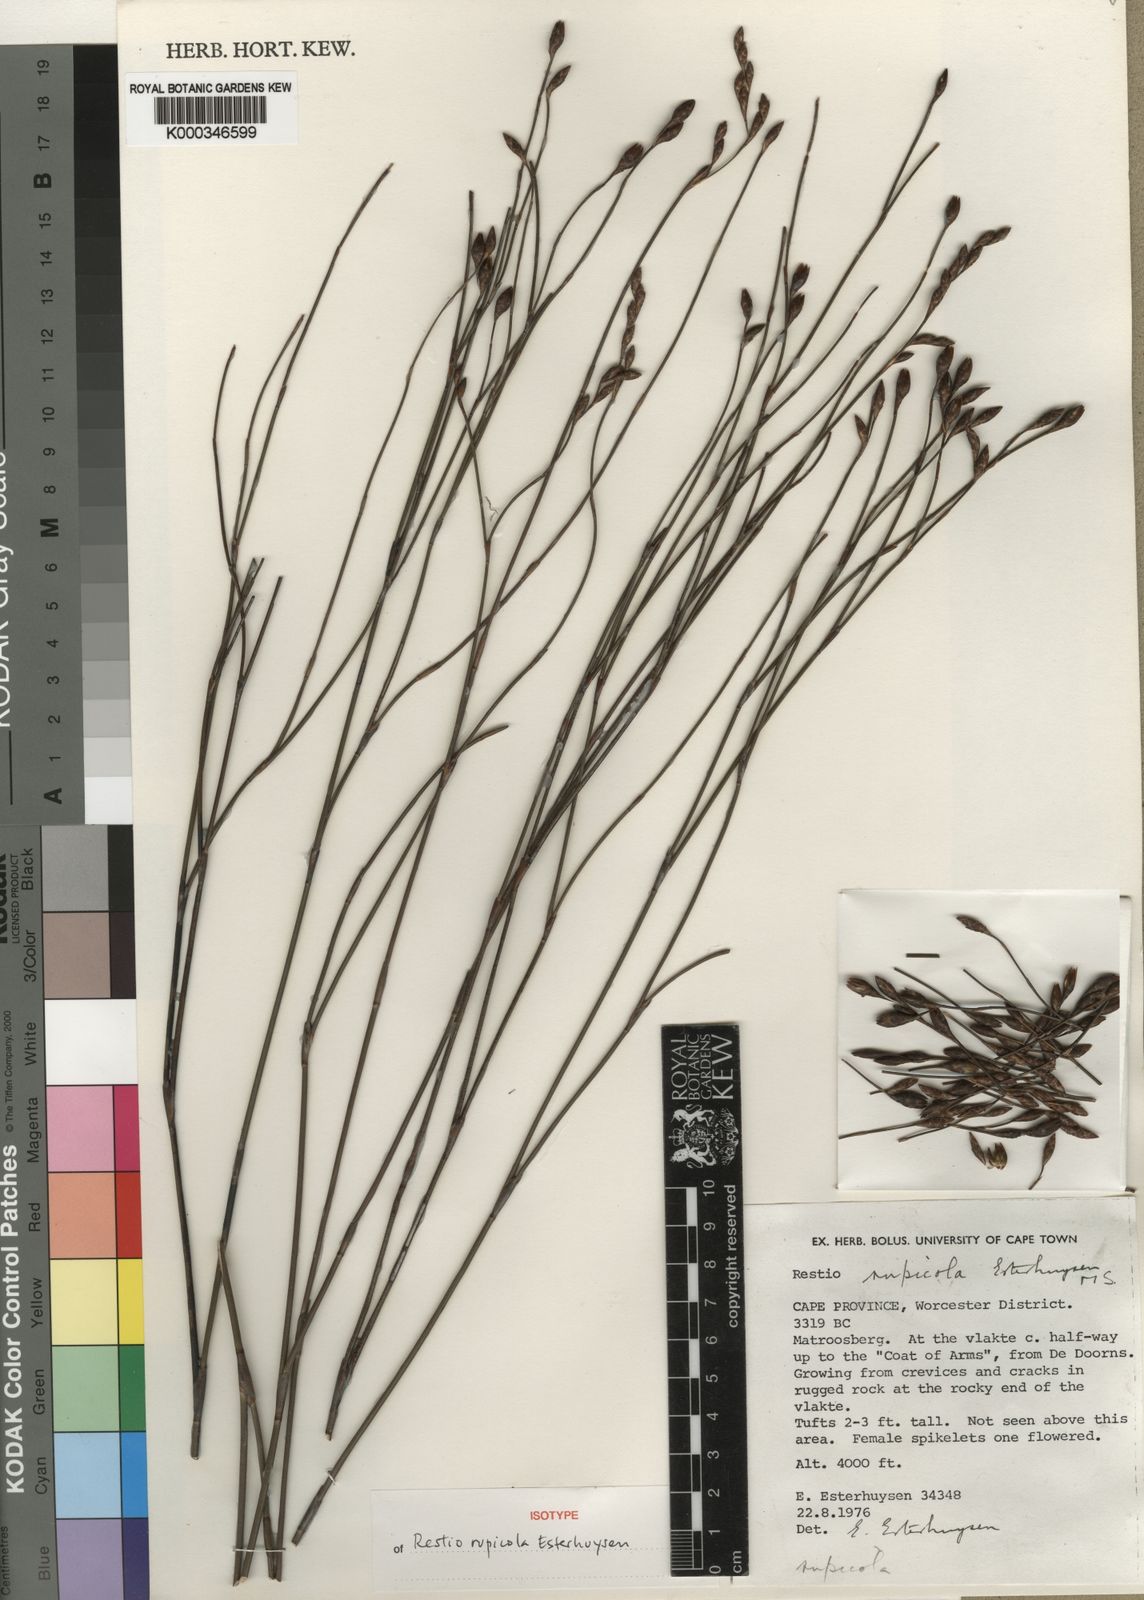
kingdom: Plantae
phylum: Tracheophyta
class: Liliopsida
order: Poales
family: Restionaceae
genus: Restio
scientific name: Restio rupicola
